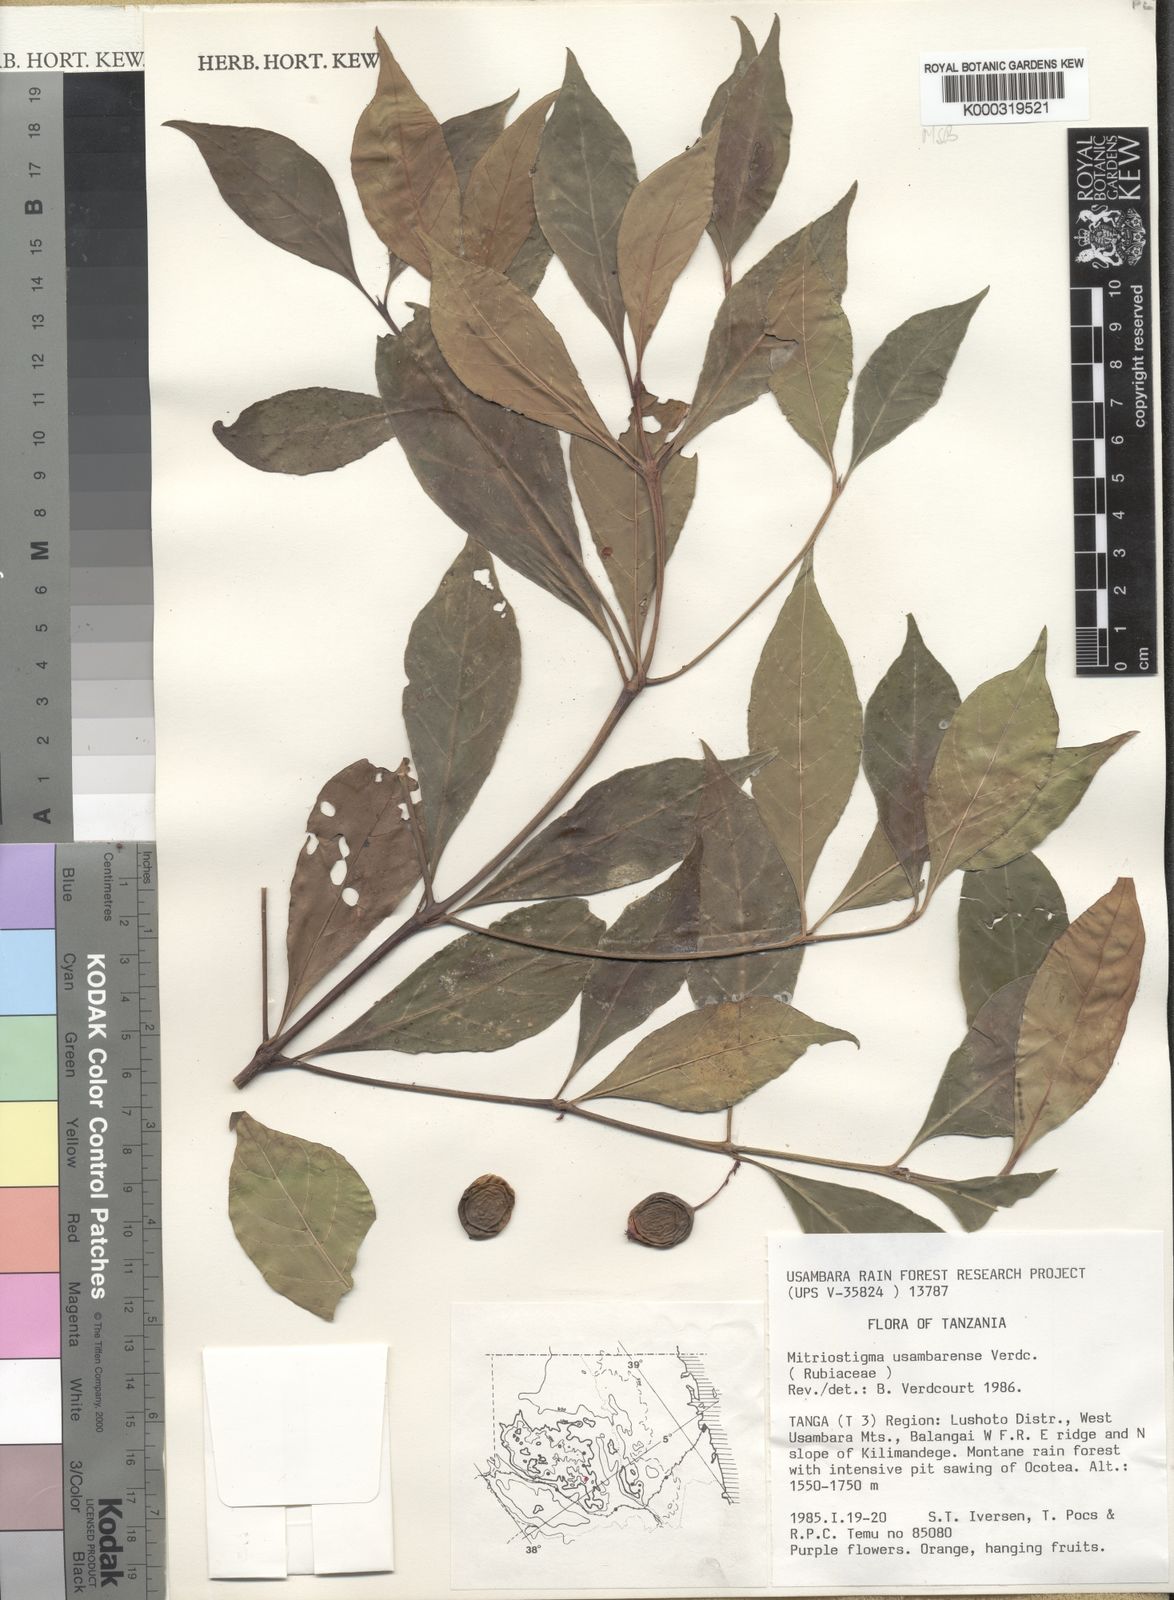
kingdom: Plantae
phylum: Tracheophyta
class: Magnoliopsida
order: Gentianales
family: Rubiaceae
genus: Mitriostigma
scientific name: Mitriostigma usambarense
